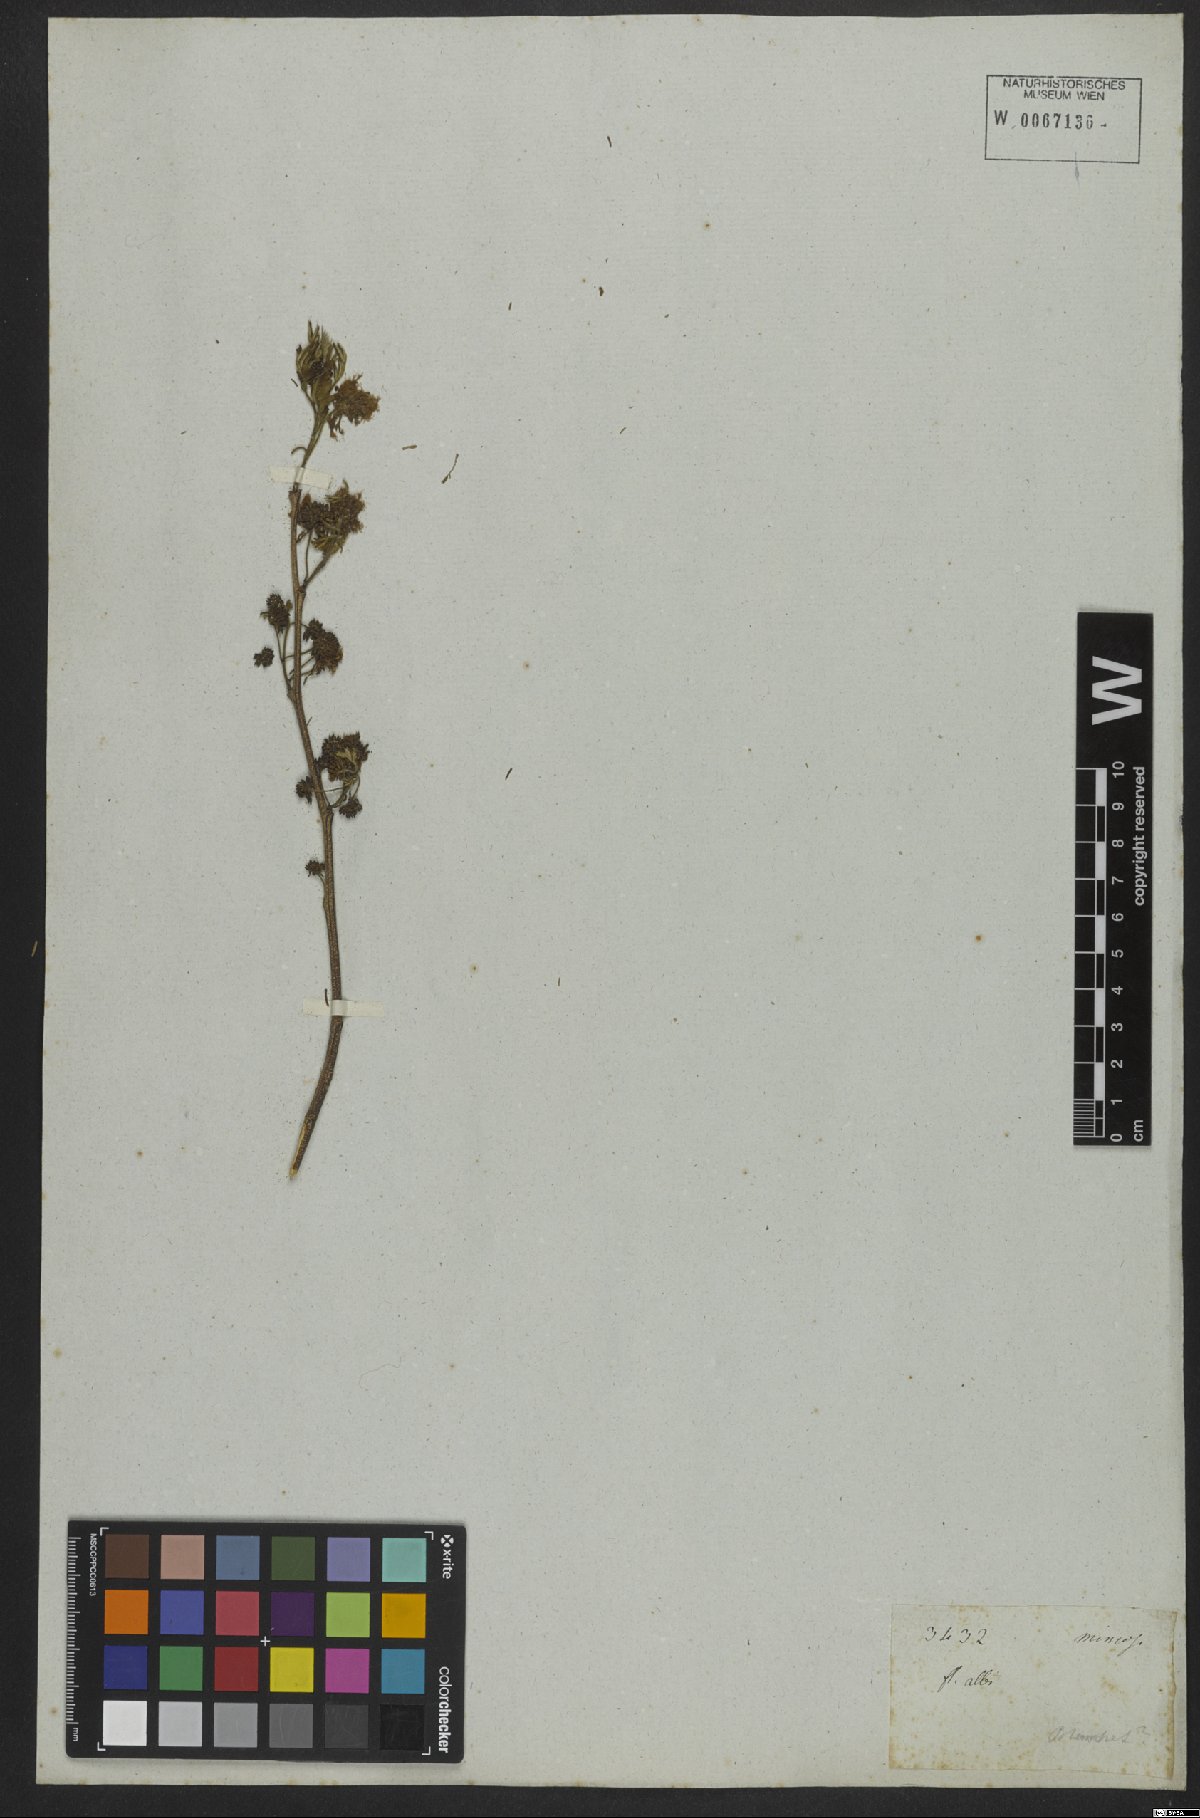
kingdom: Plantae
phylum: Tracheophyta
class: Magnoliopsida
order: Fabales
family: Fabaceae
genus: Chloroleucon
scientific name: Chloroleucon mangense
